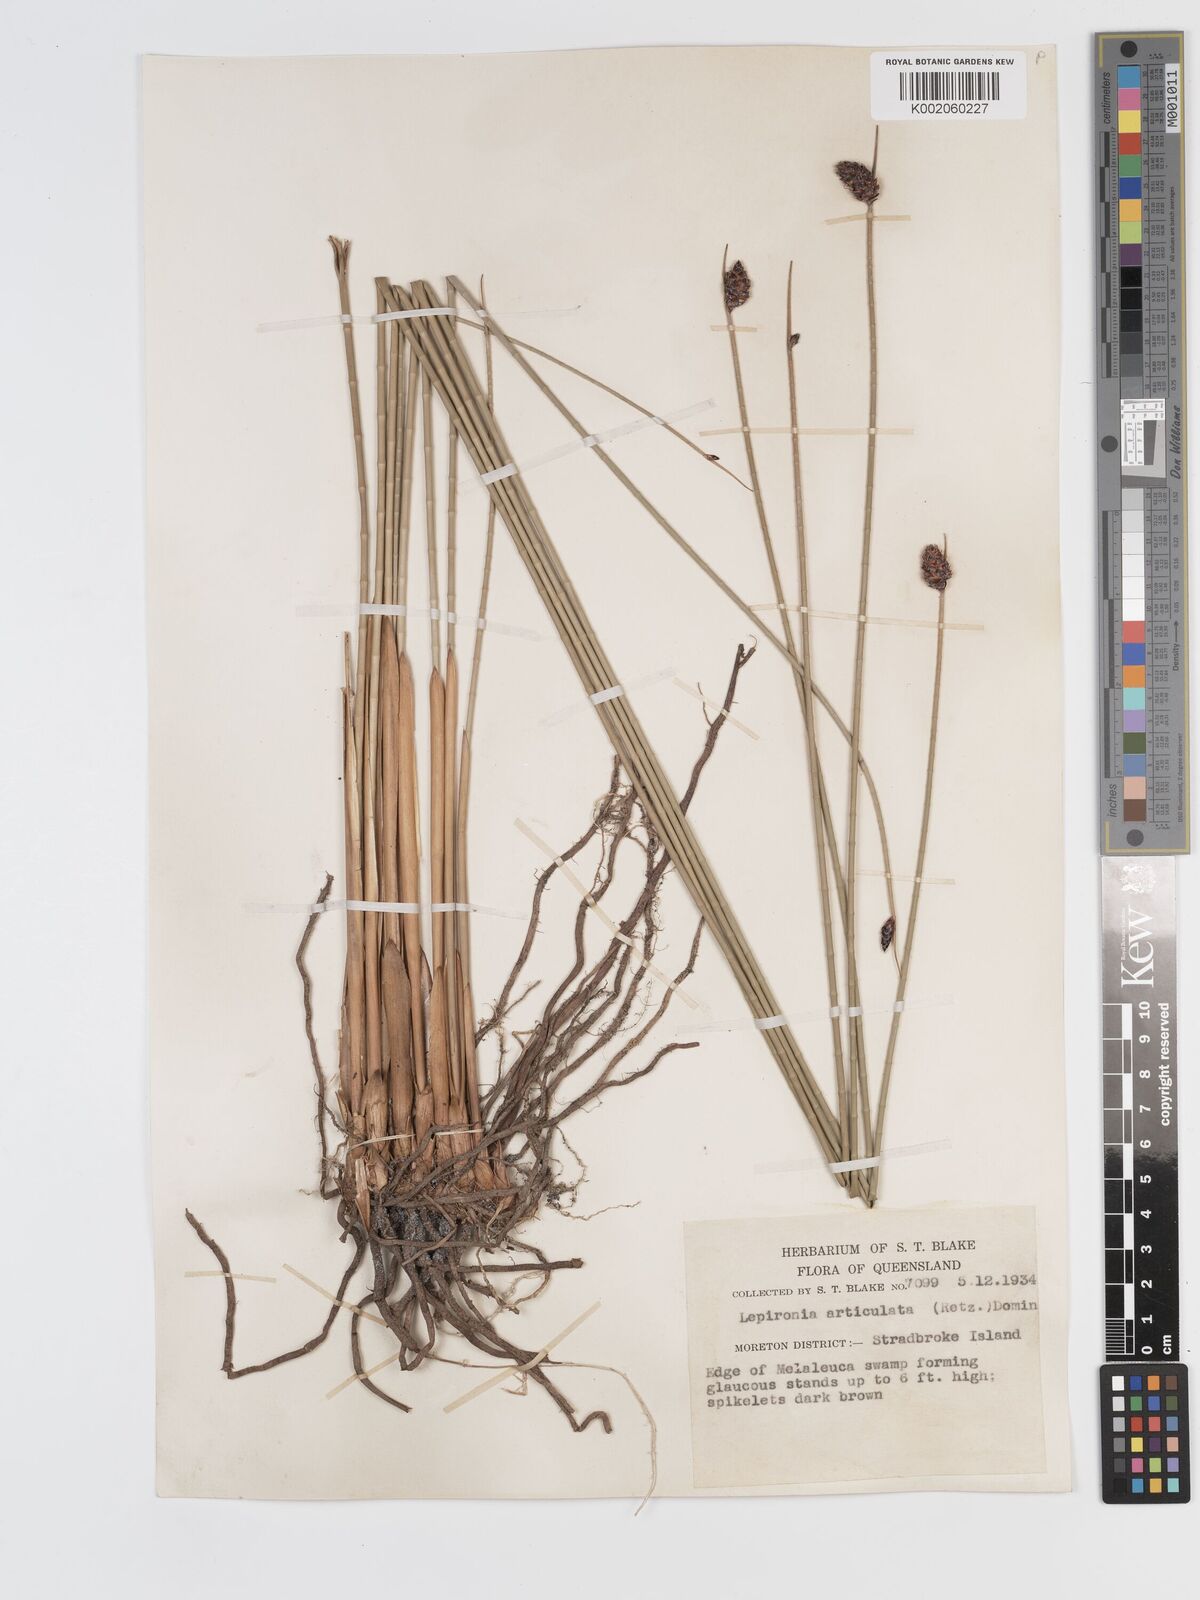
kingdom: Plantae
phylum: Tracheophyta
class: Liliopsida
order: Poales
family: Cyperaceae
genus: Lepironia
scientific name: Lepironia articulata
